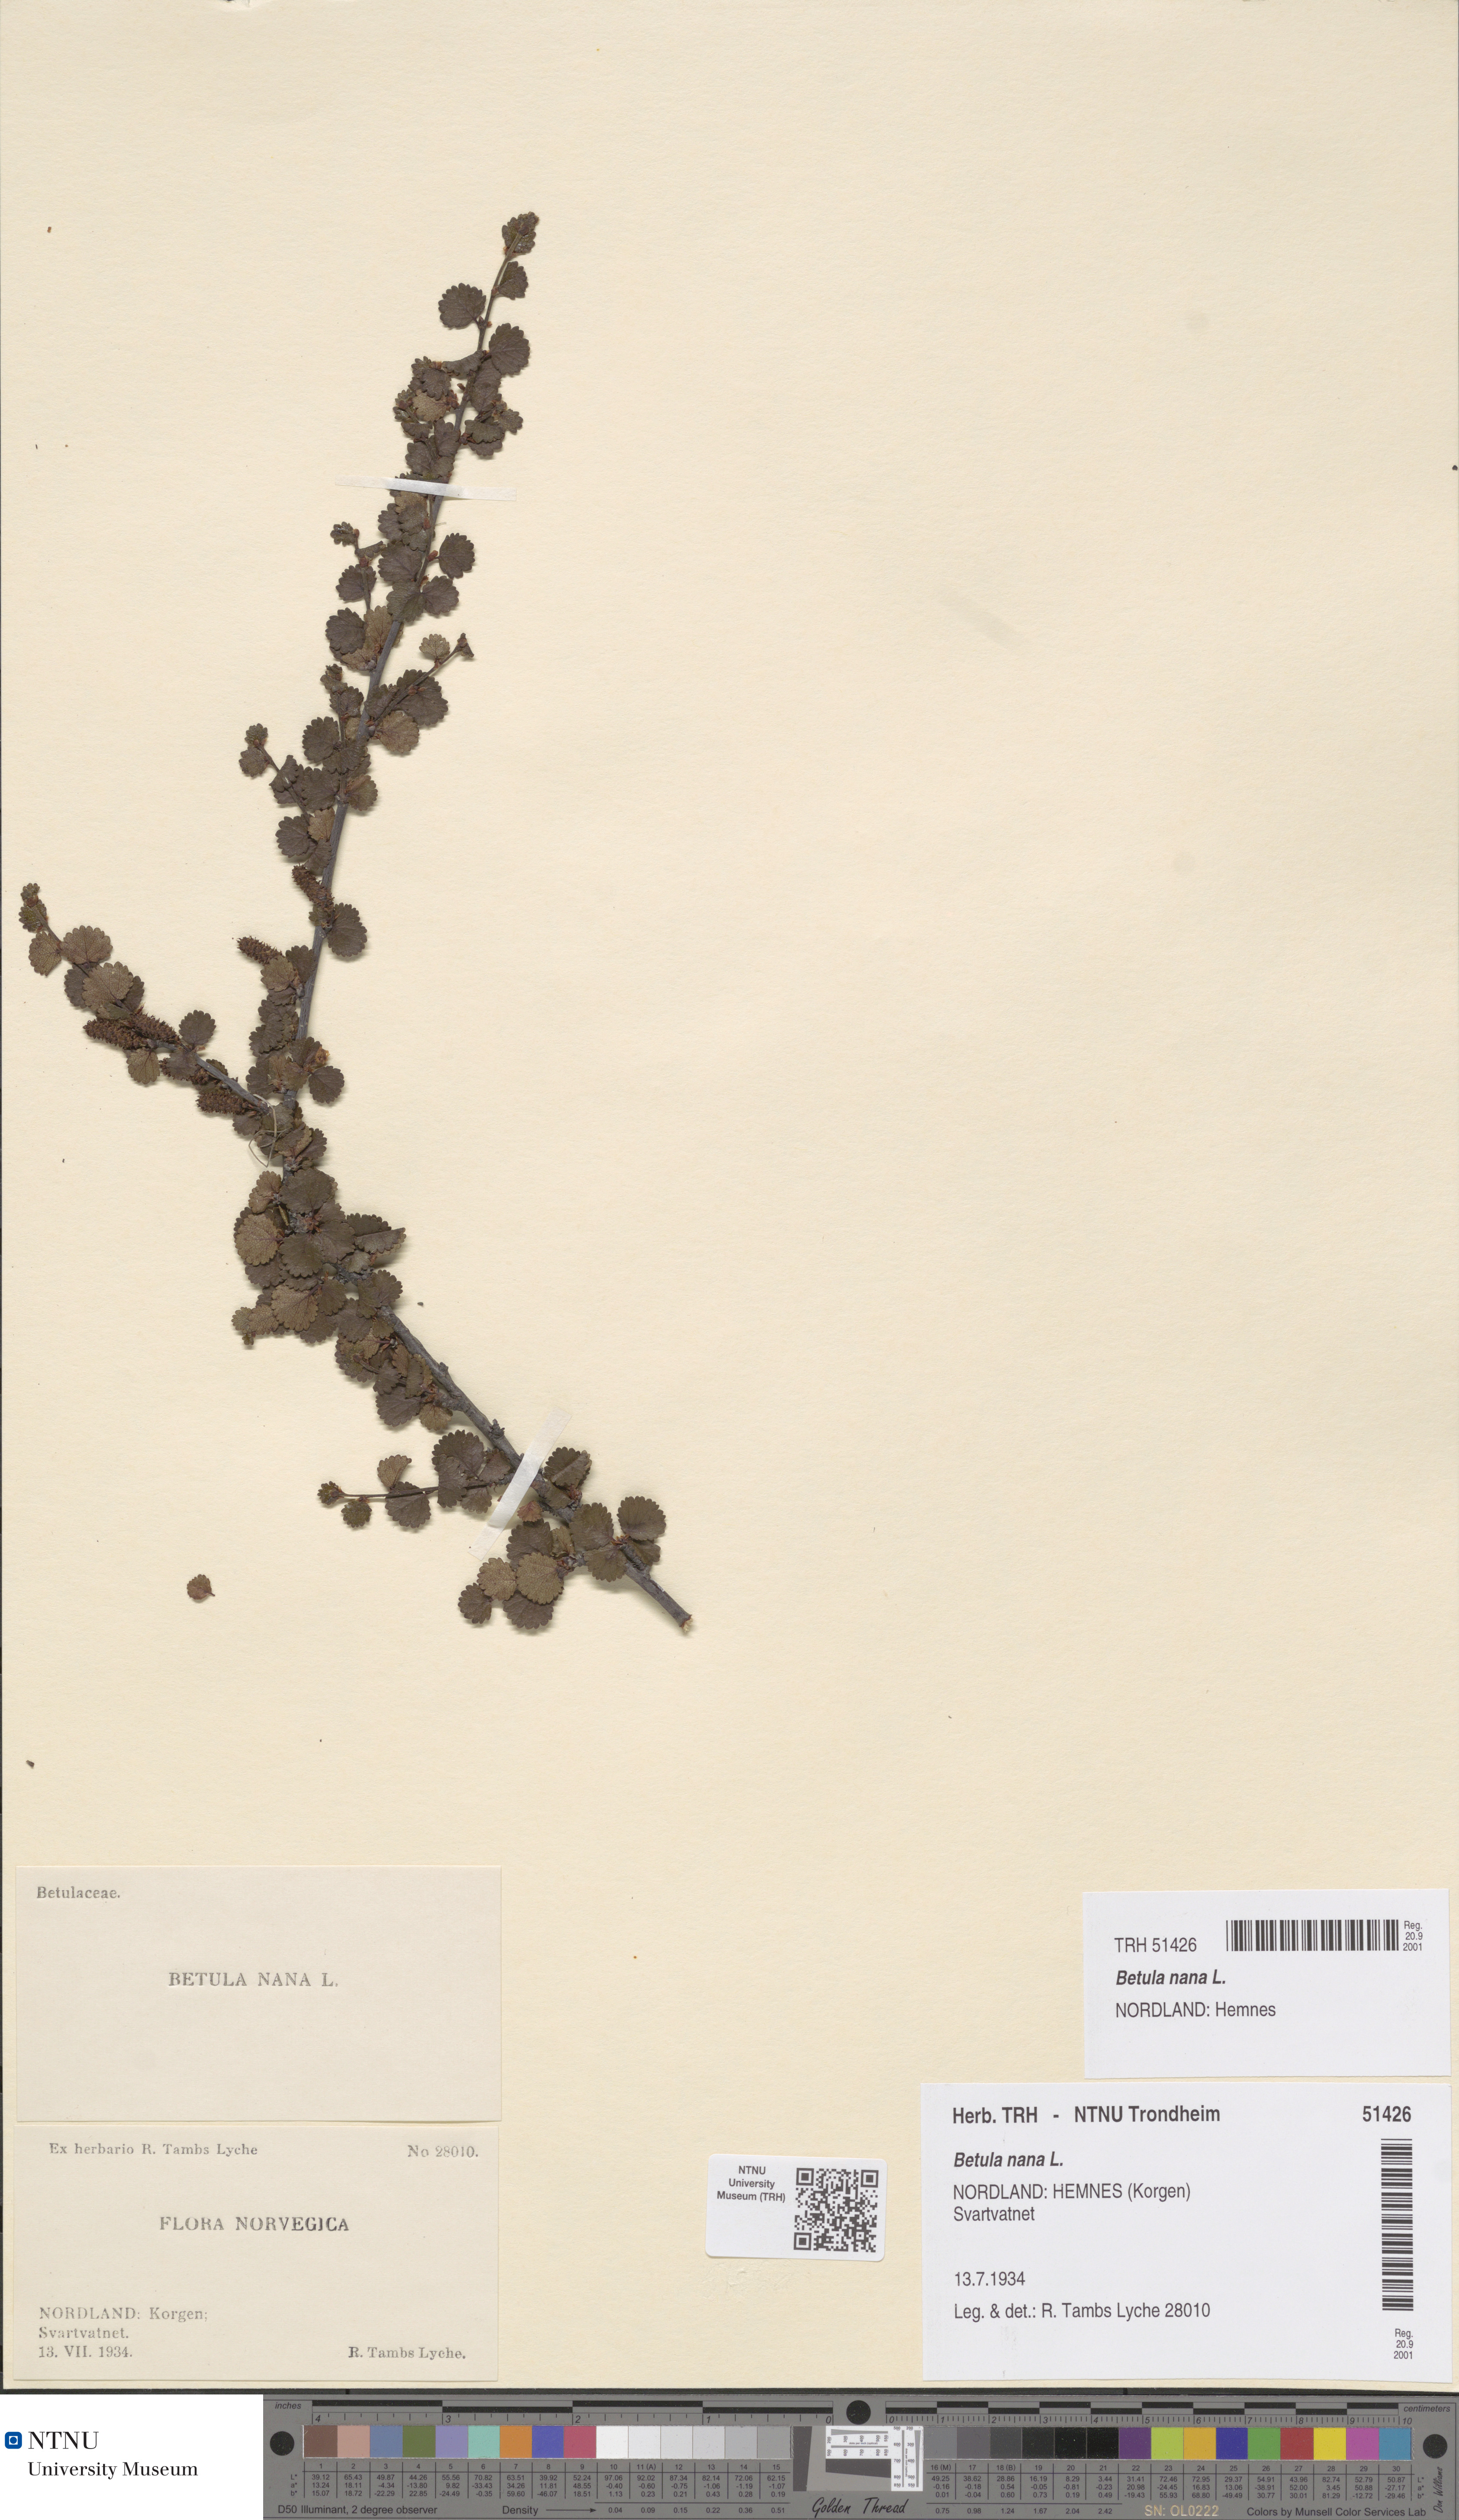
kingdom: Plantae
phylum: Tracheophyta
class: Magnoliopsida
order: Fagales
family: Betulaceae
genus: Betula
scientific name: Betula nana
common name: Arctic dwarf birch
